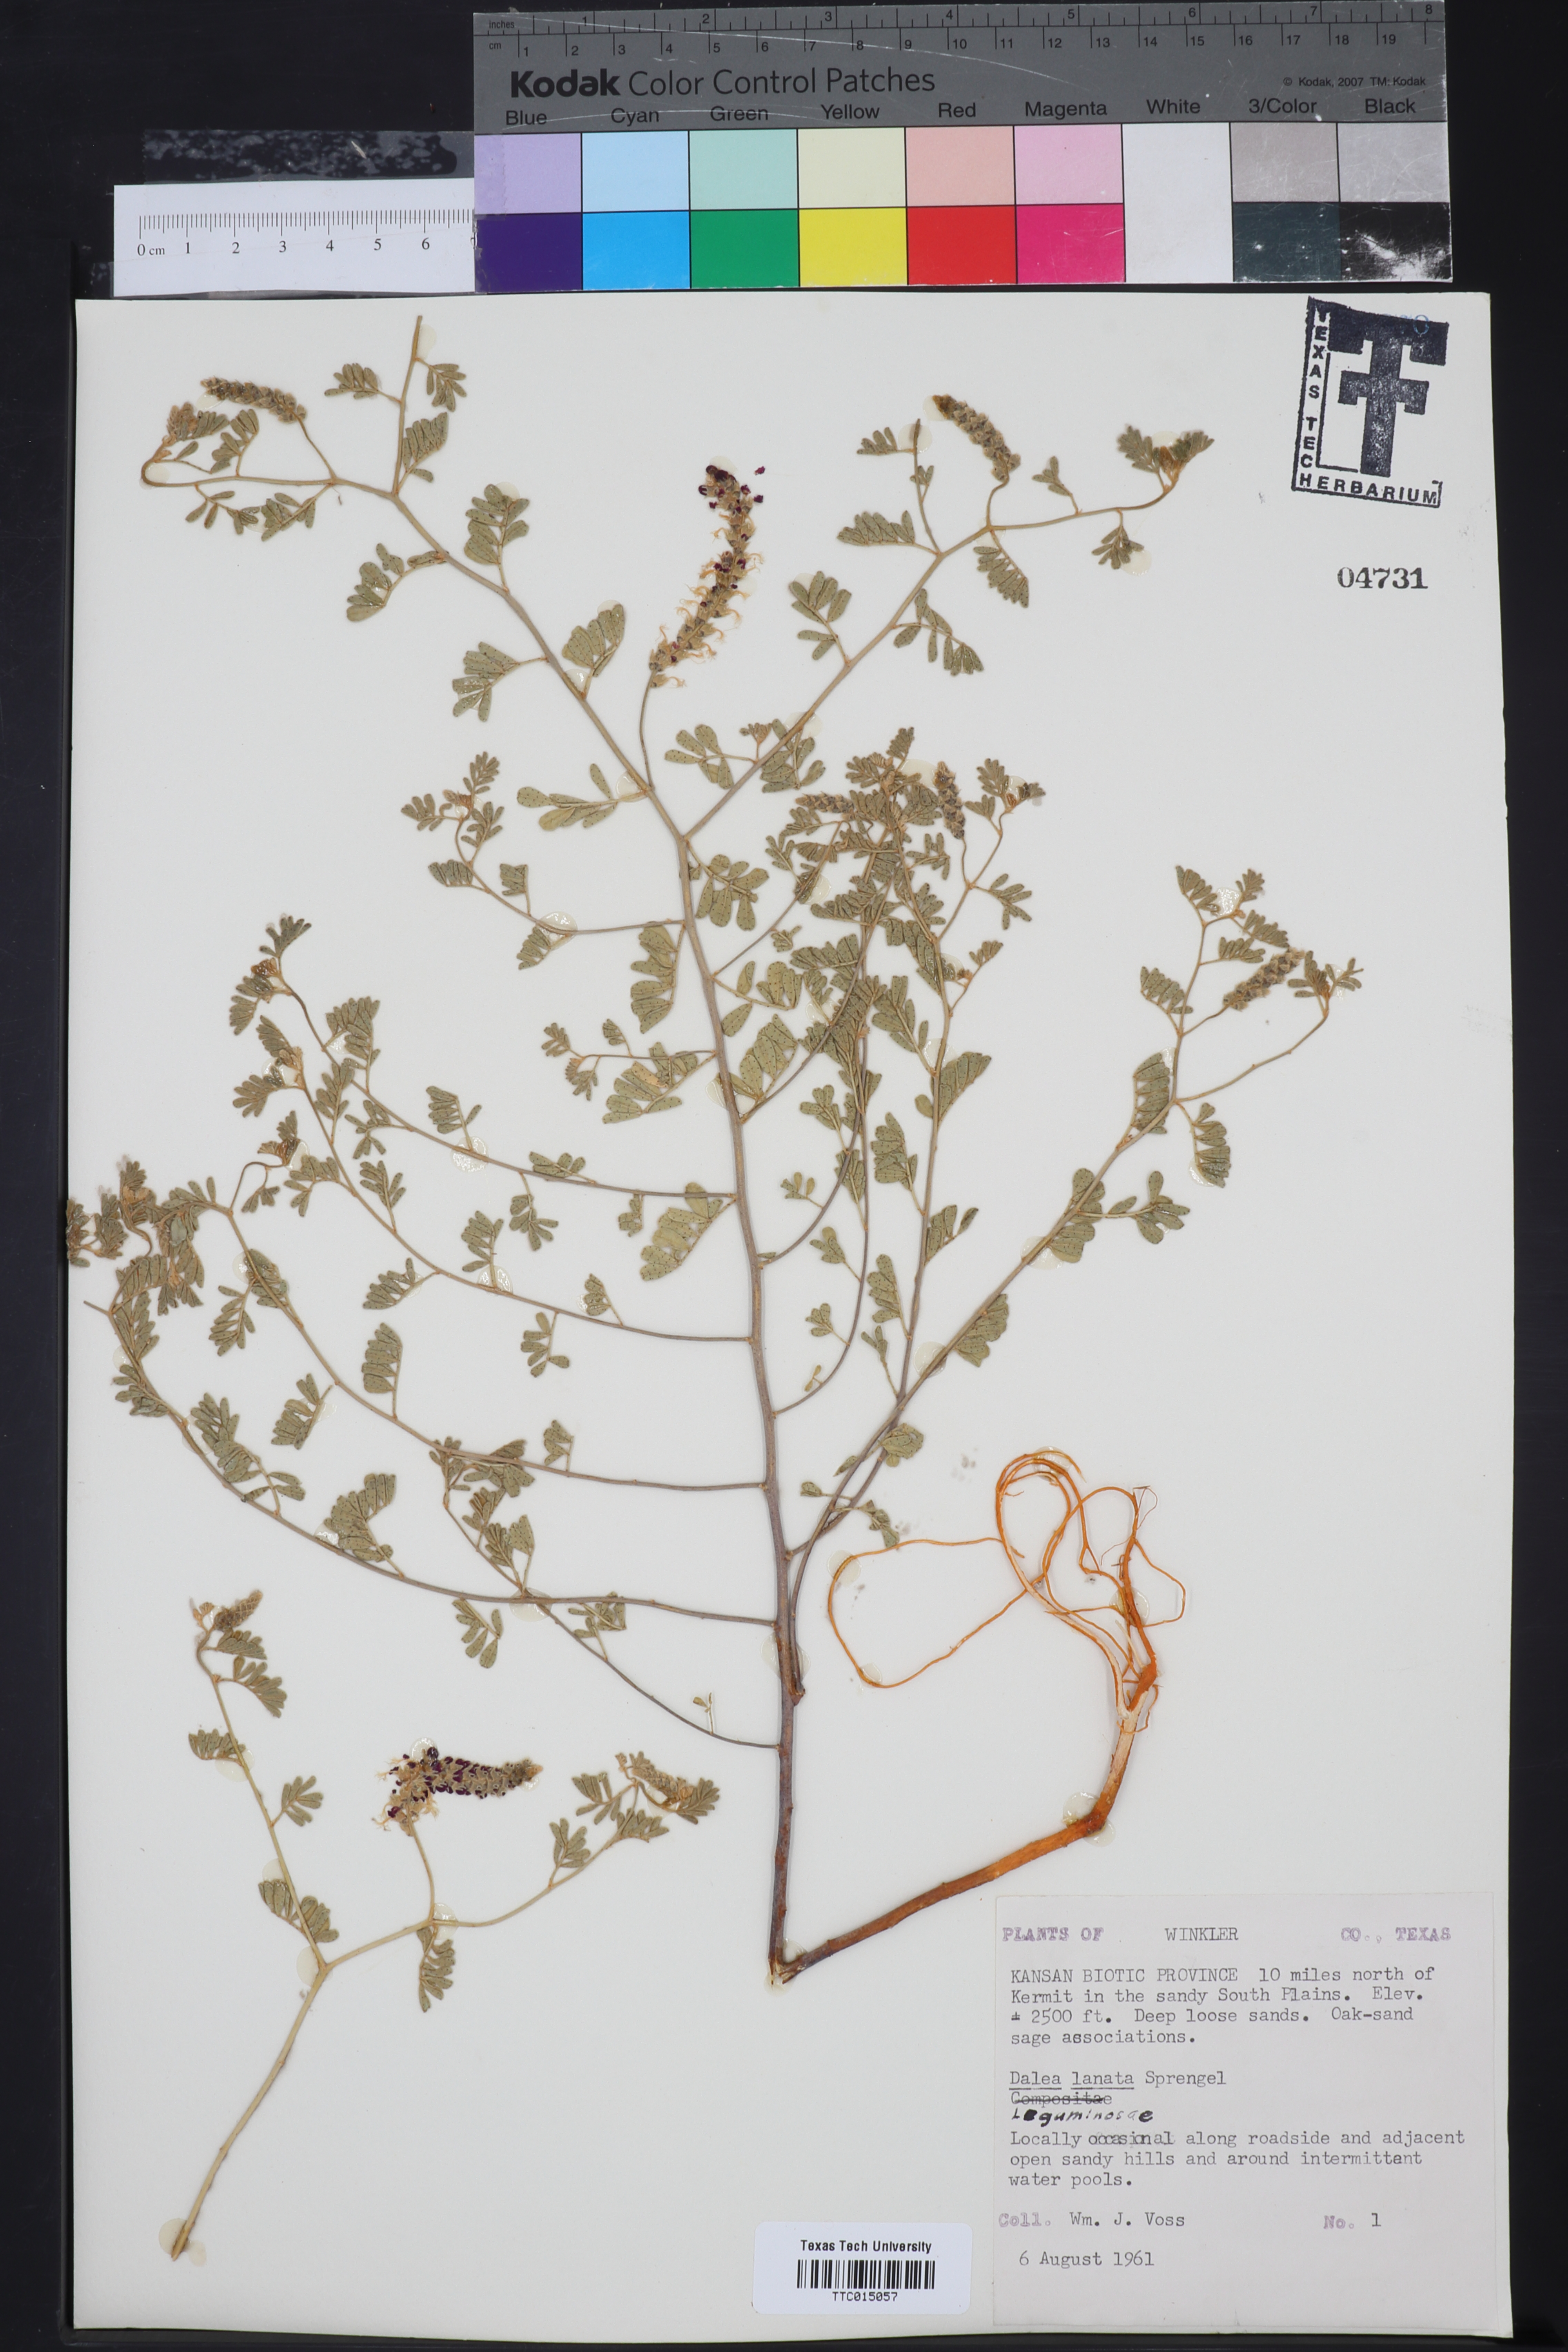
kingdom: Plantae
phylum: Tracheophyta
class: Magnoliopsida
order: Fabales
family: Fabaceae
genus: Dalea
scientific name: Dalea lanata
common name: Woolly dalea
